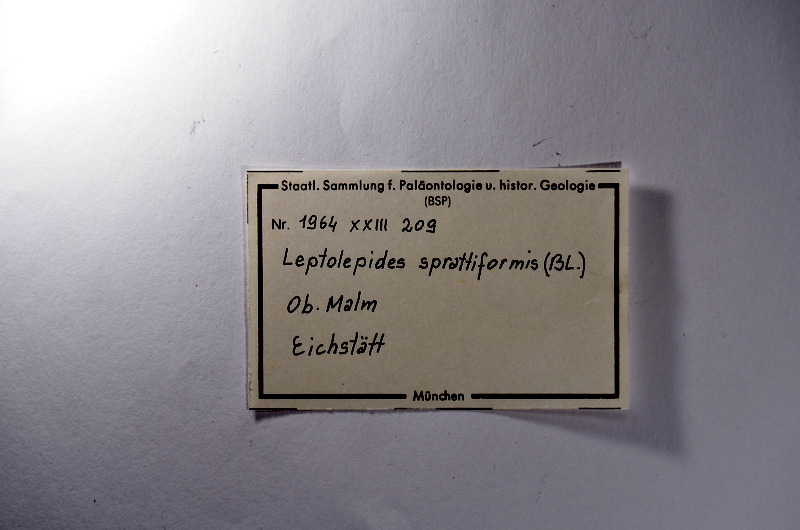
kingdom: Animalia
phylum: Chordata
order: Salmoniformes
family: Orthogonikleithridae
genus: Leptolepides
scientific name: Leptolepides sprattiformis
